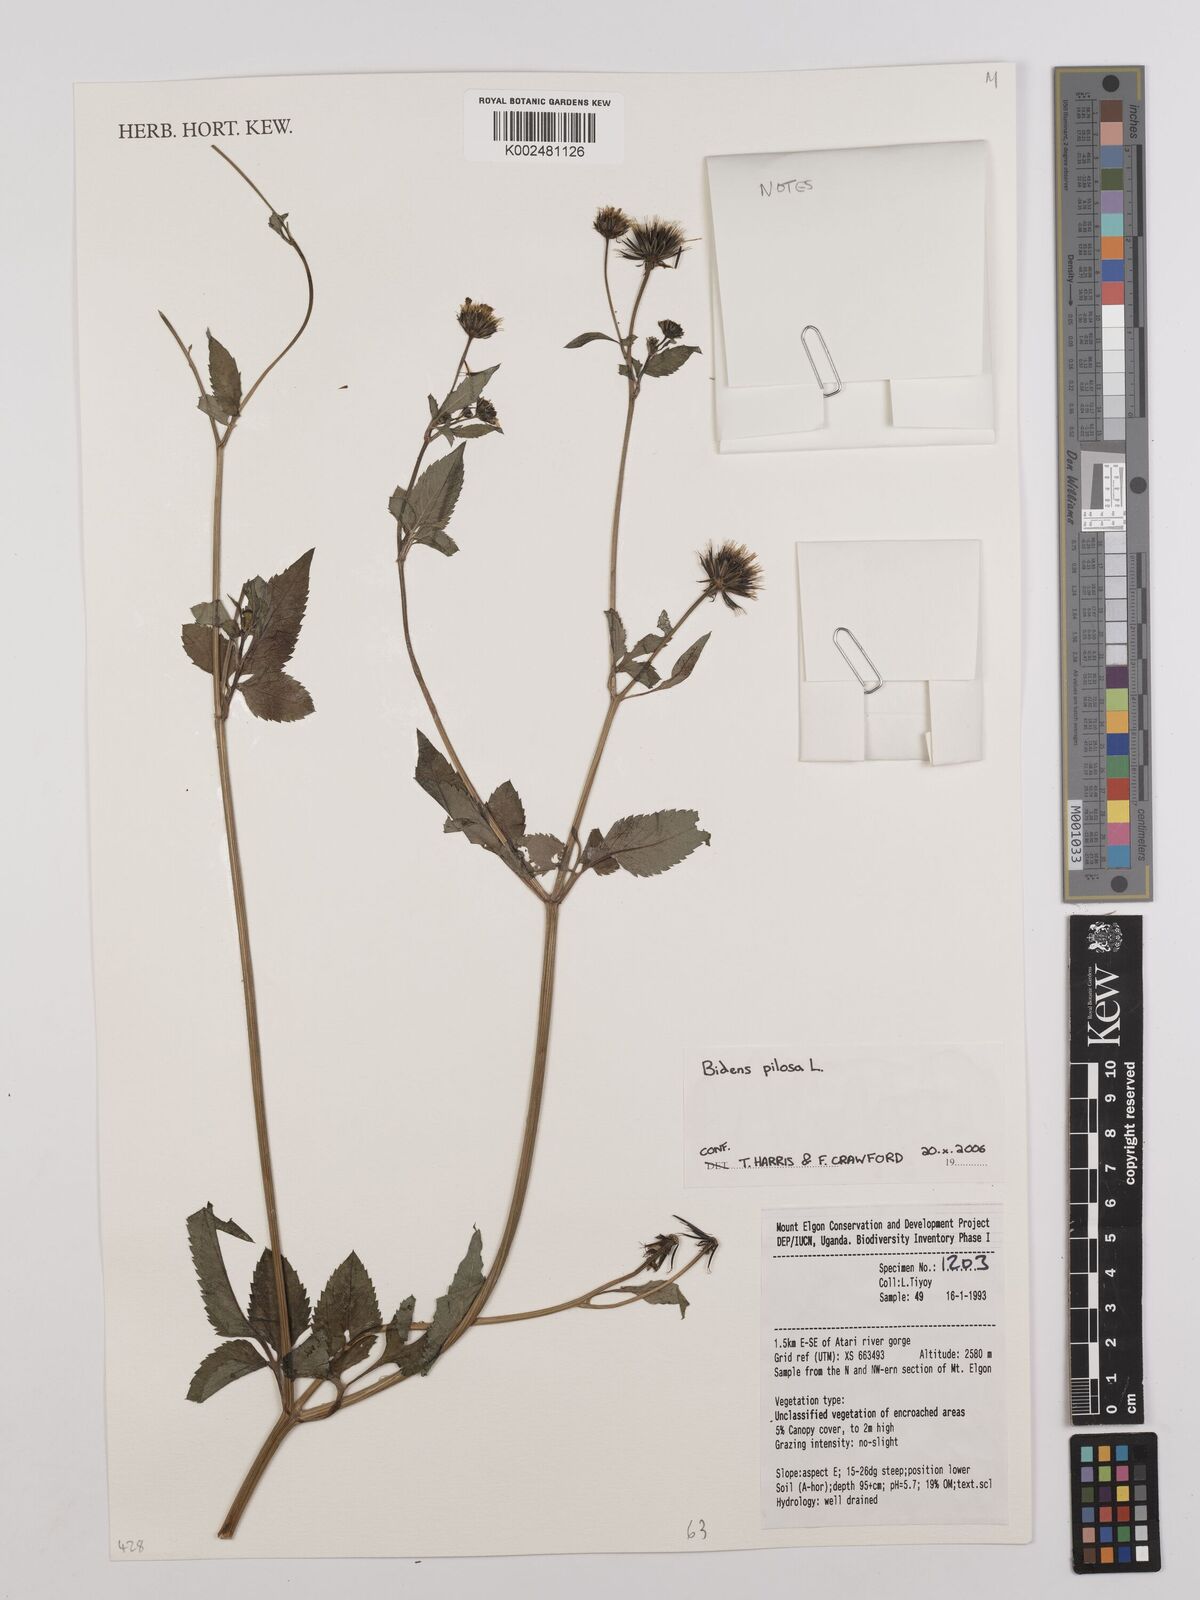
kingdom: Plantae
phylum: Tracheophyta
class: Magnoliopsida
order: Asterales
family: Asteraceae
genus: Bidens
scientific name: Bidens pilosa
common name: Black-jack
